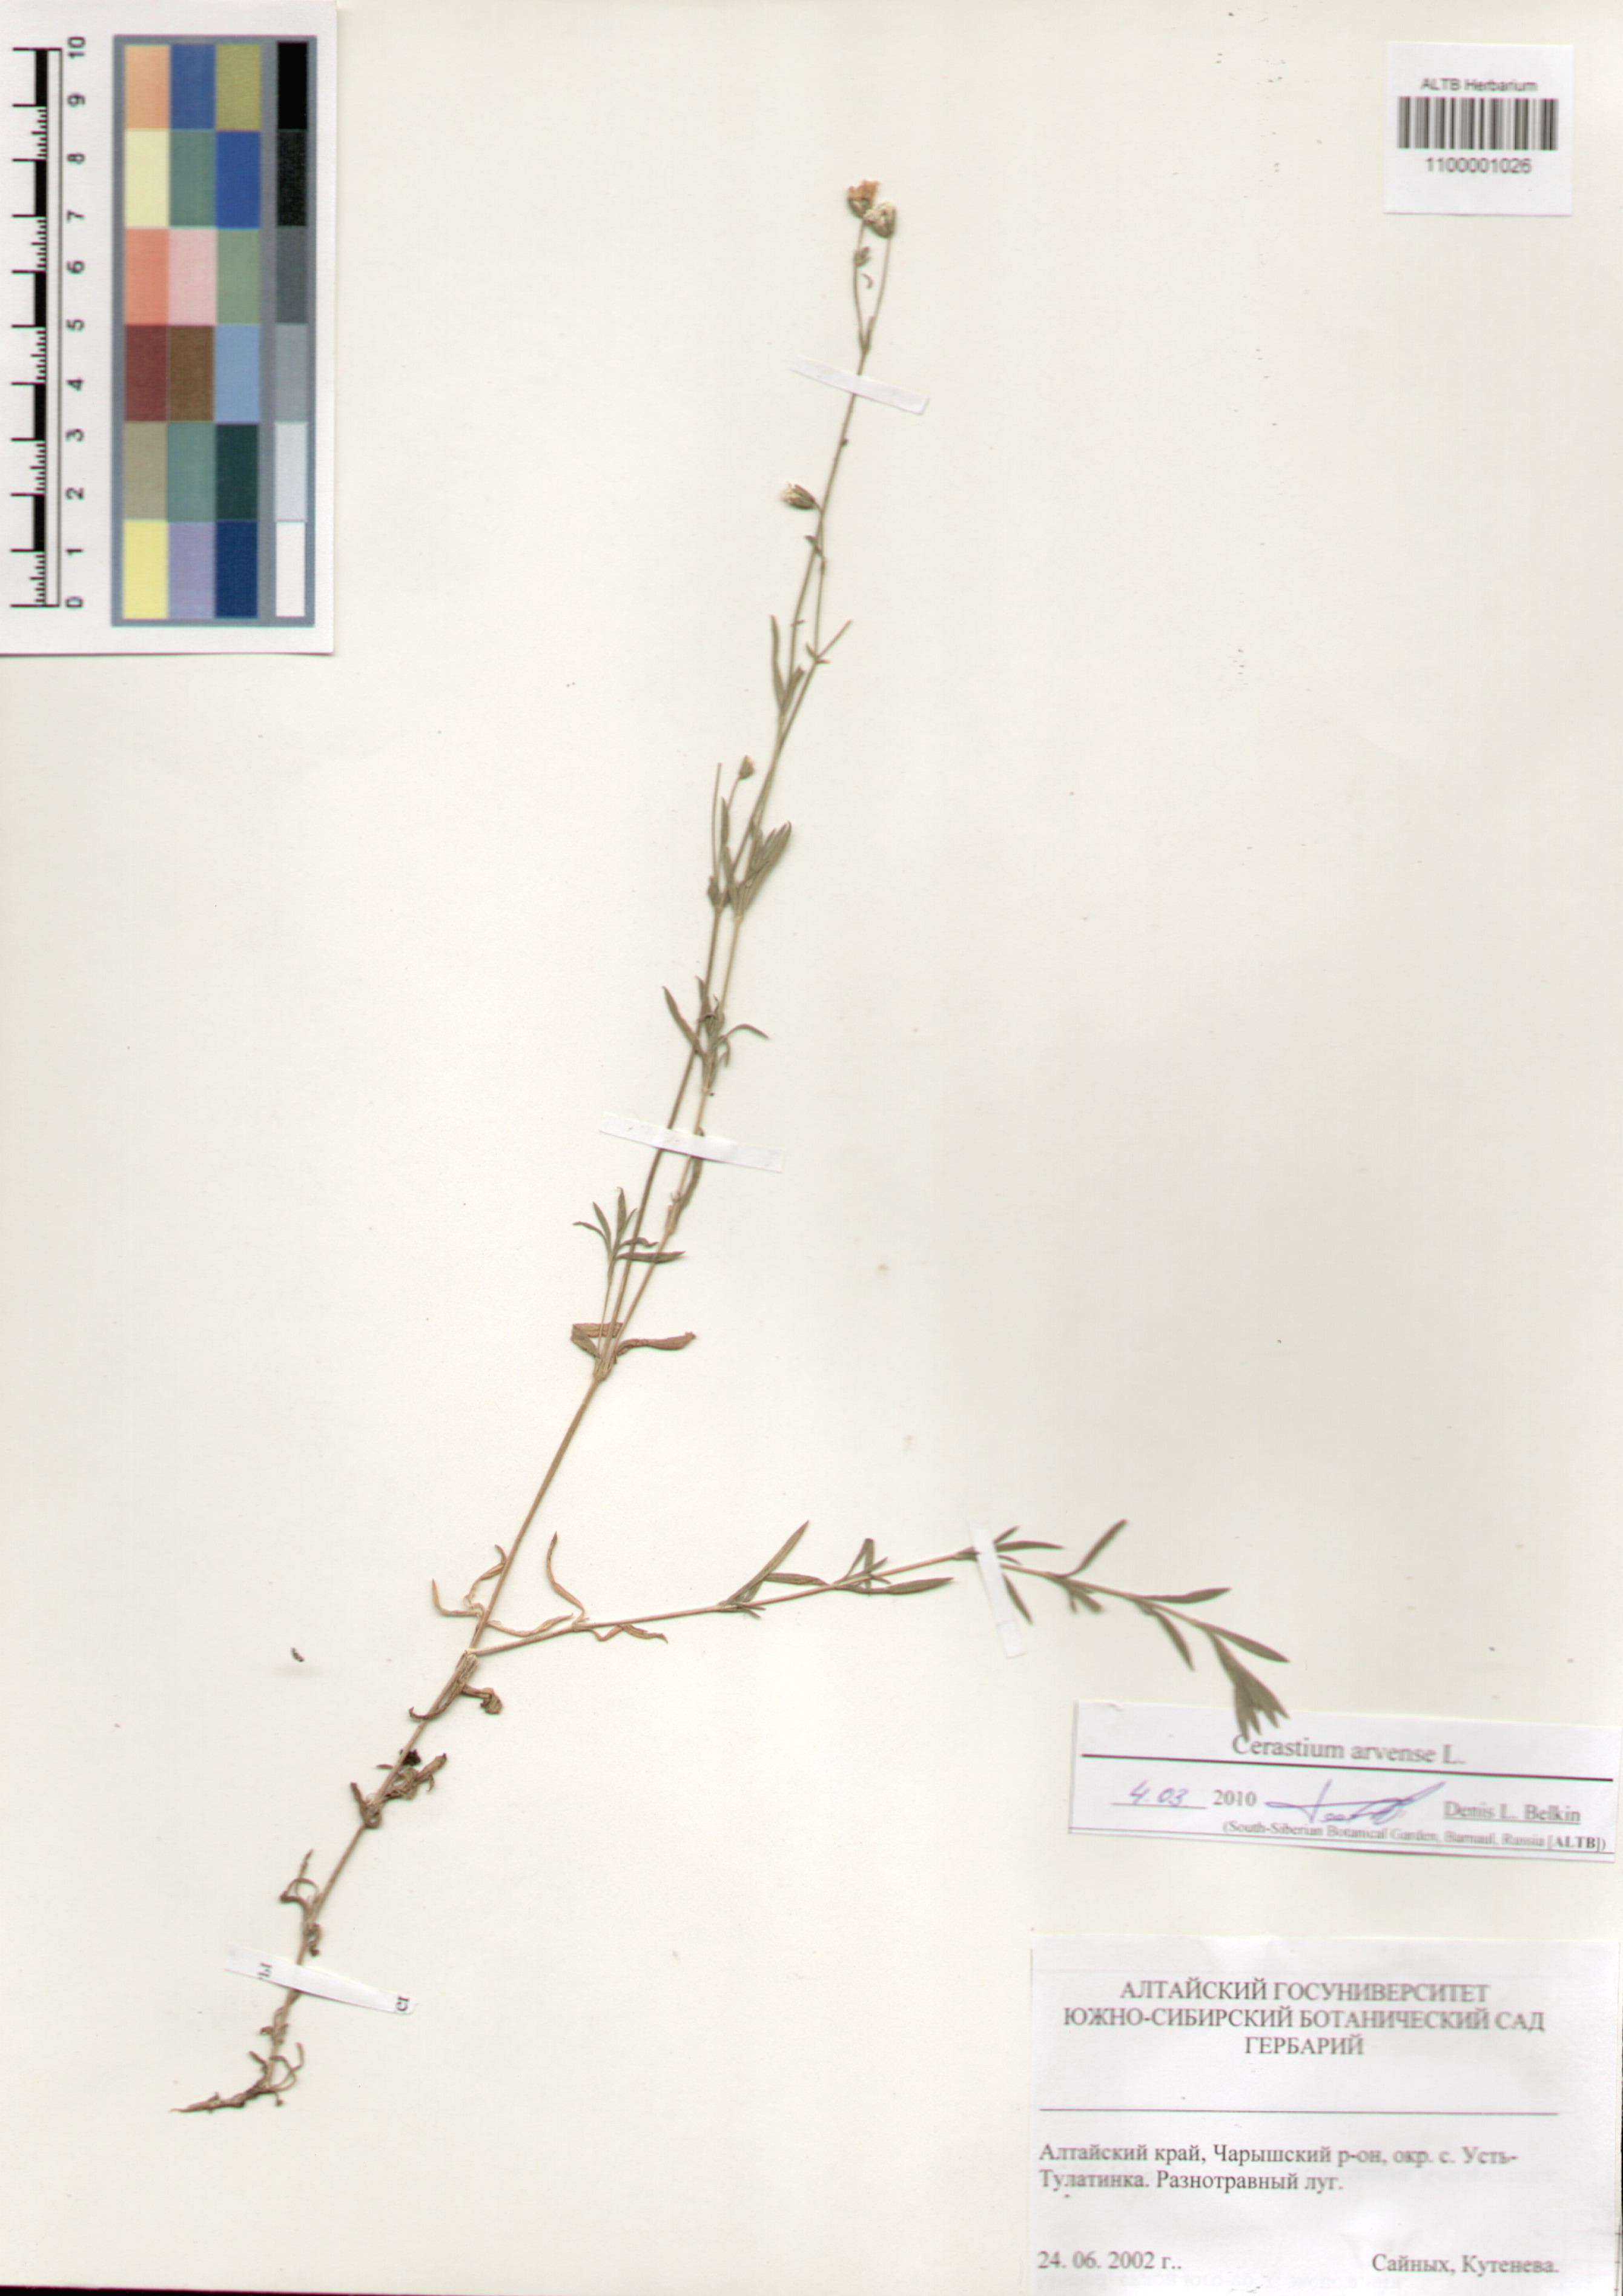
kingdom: Plantae
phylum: Tracheophyta
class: Magnoliopsida
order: Caryophyllales
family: Caryophyllaceae
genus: Cerastium
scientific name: Cerastium arvense
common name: Field mouse-ear
